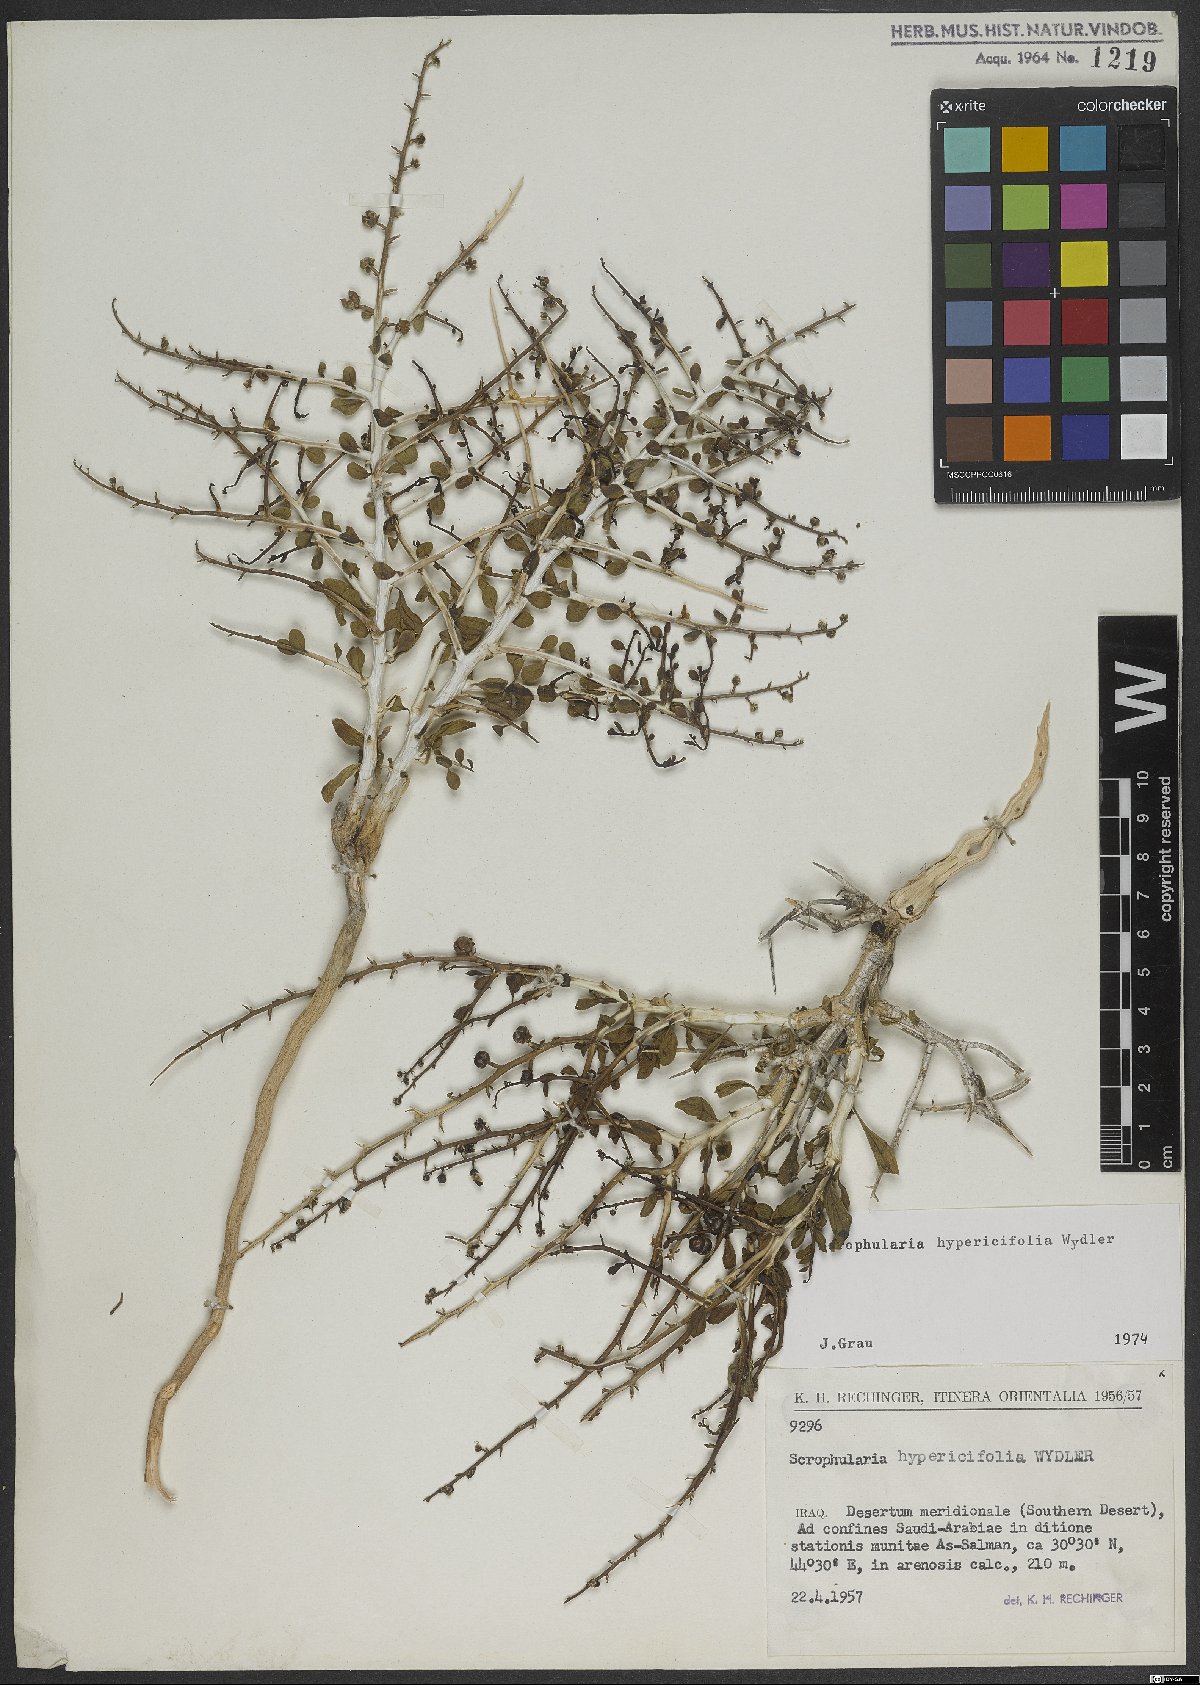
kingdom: Plantae
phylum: Tracheophyta
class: Magnoliopsida
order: Lamiales
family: Scrophulariaceae
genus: Scrophularia
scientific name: Scrophularia hypericifolia
